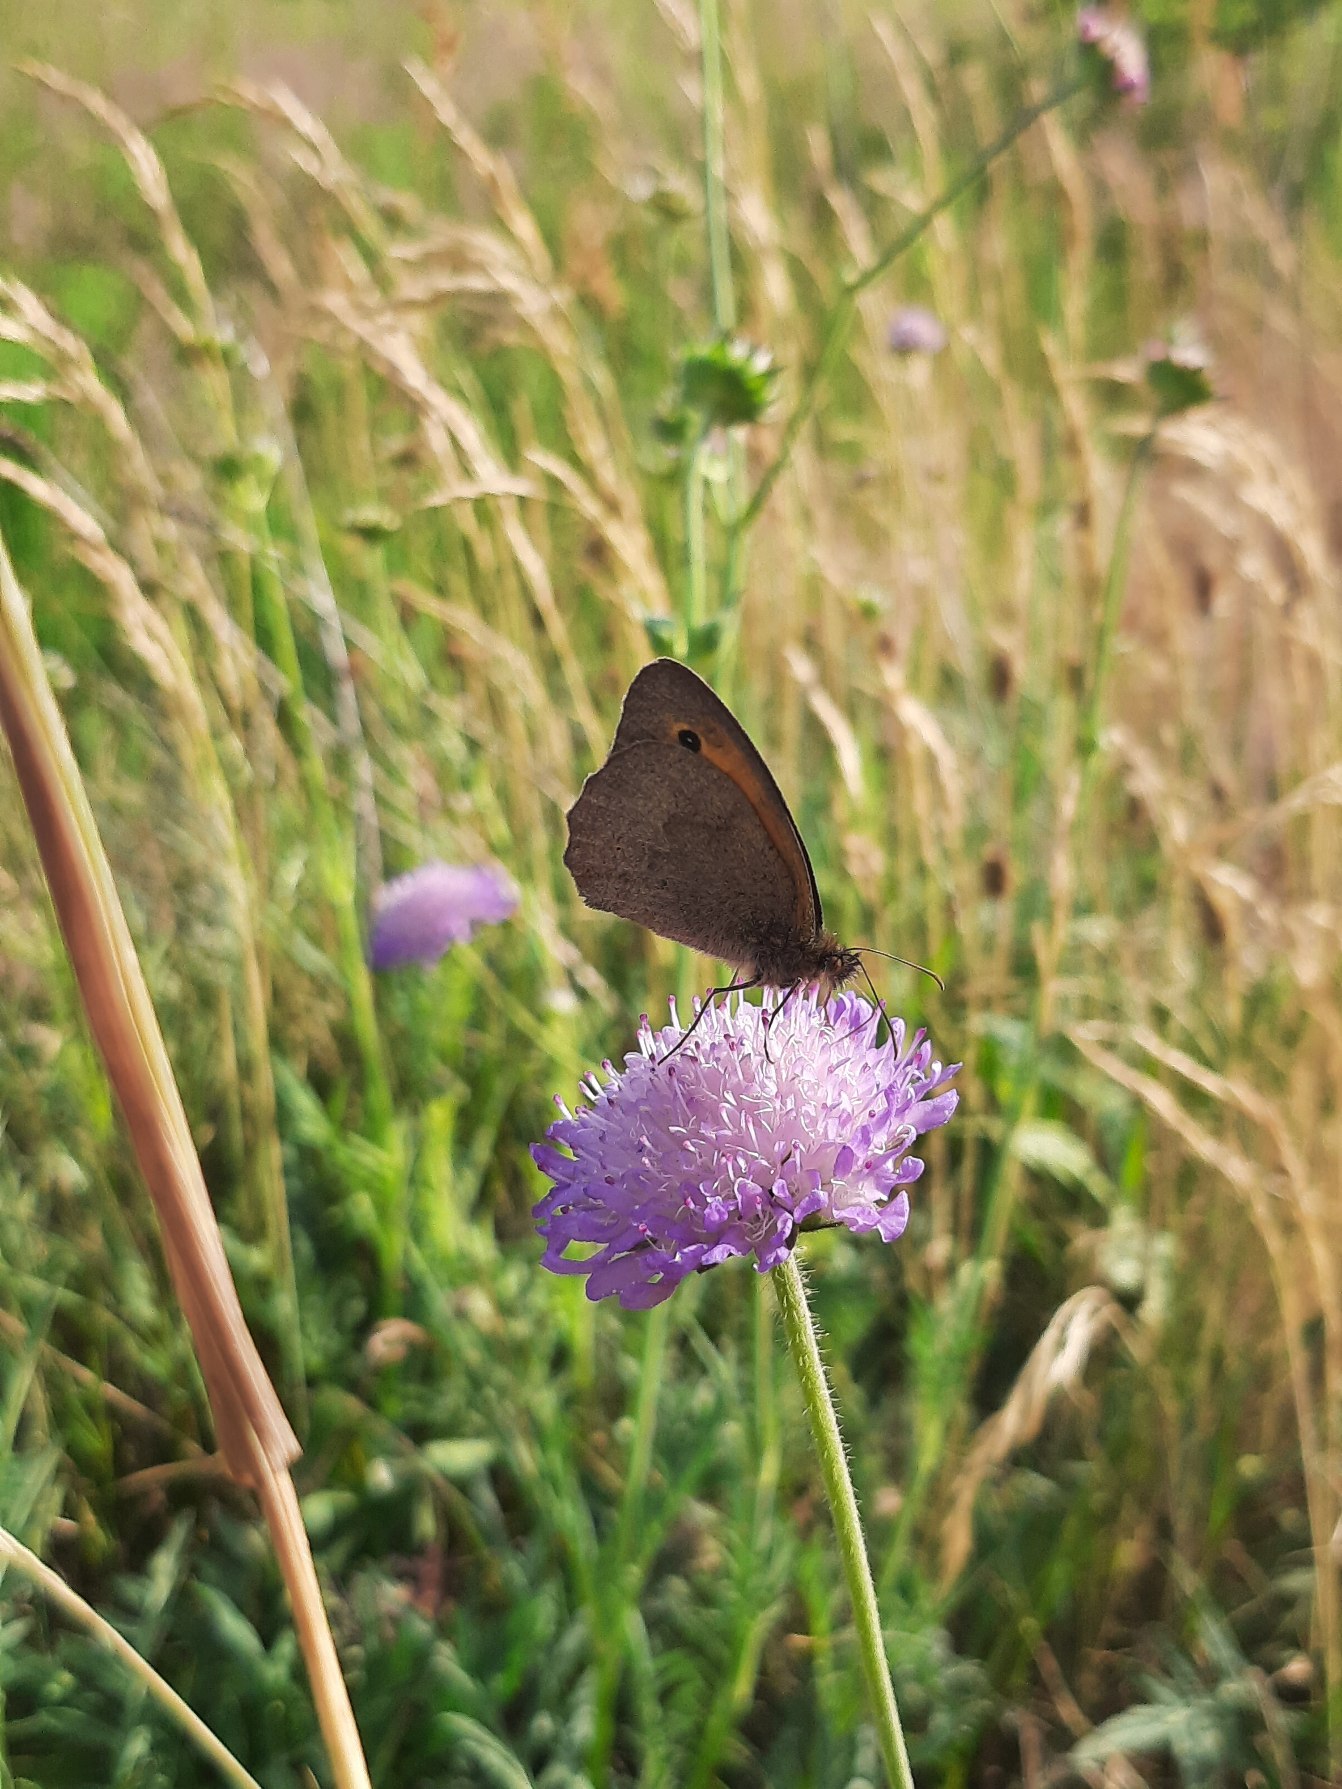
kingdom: Animalia
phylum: Arthropoda
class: Insecta
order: Lepidoptera
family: Nymphalidae
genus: Maniola
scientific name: Maniola jurtina
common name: Græsrandøje
